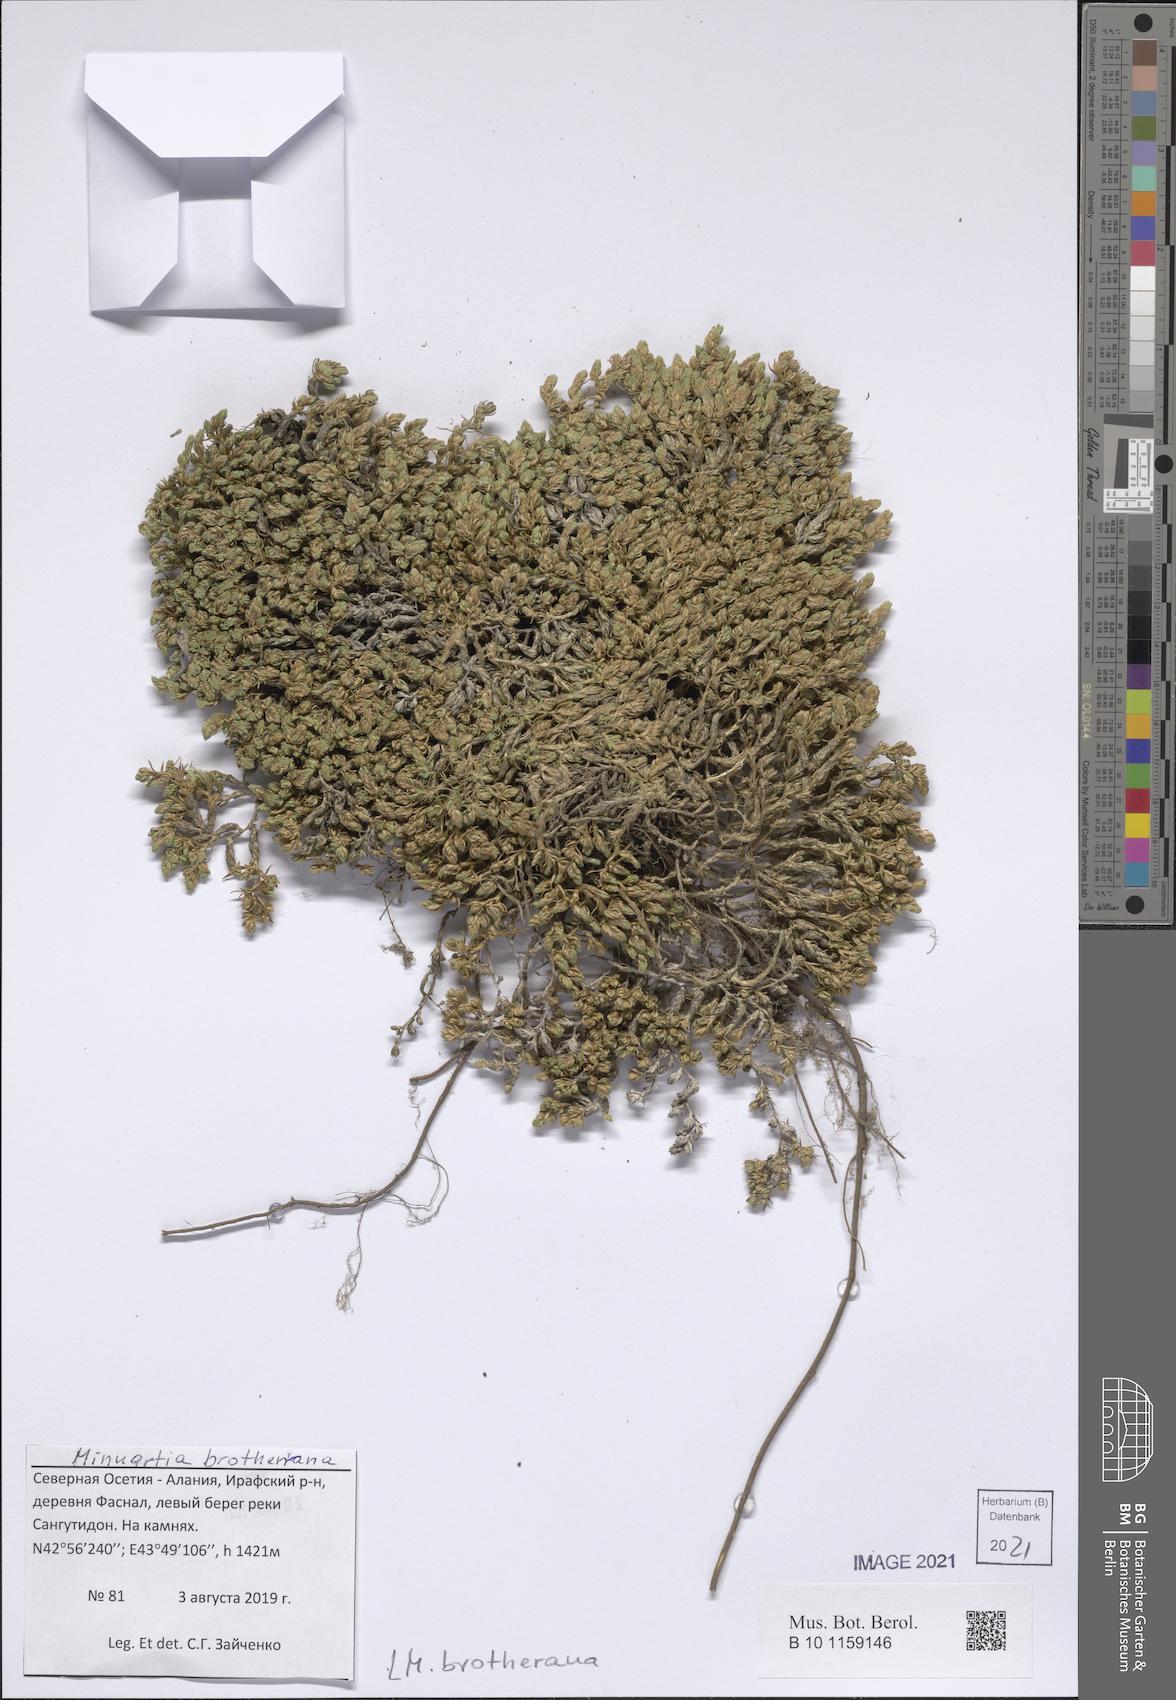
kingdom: Plantae
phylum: Tracheophyta
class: Magnoliopsida
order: Caryophyllales
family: Caryophyllaceae
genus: Minuartia
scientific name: Minuartia brotherana
